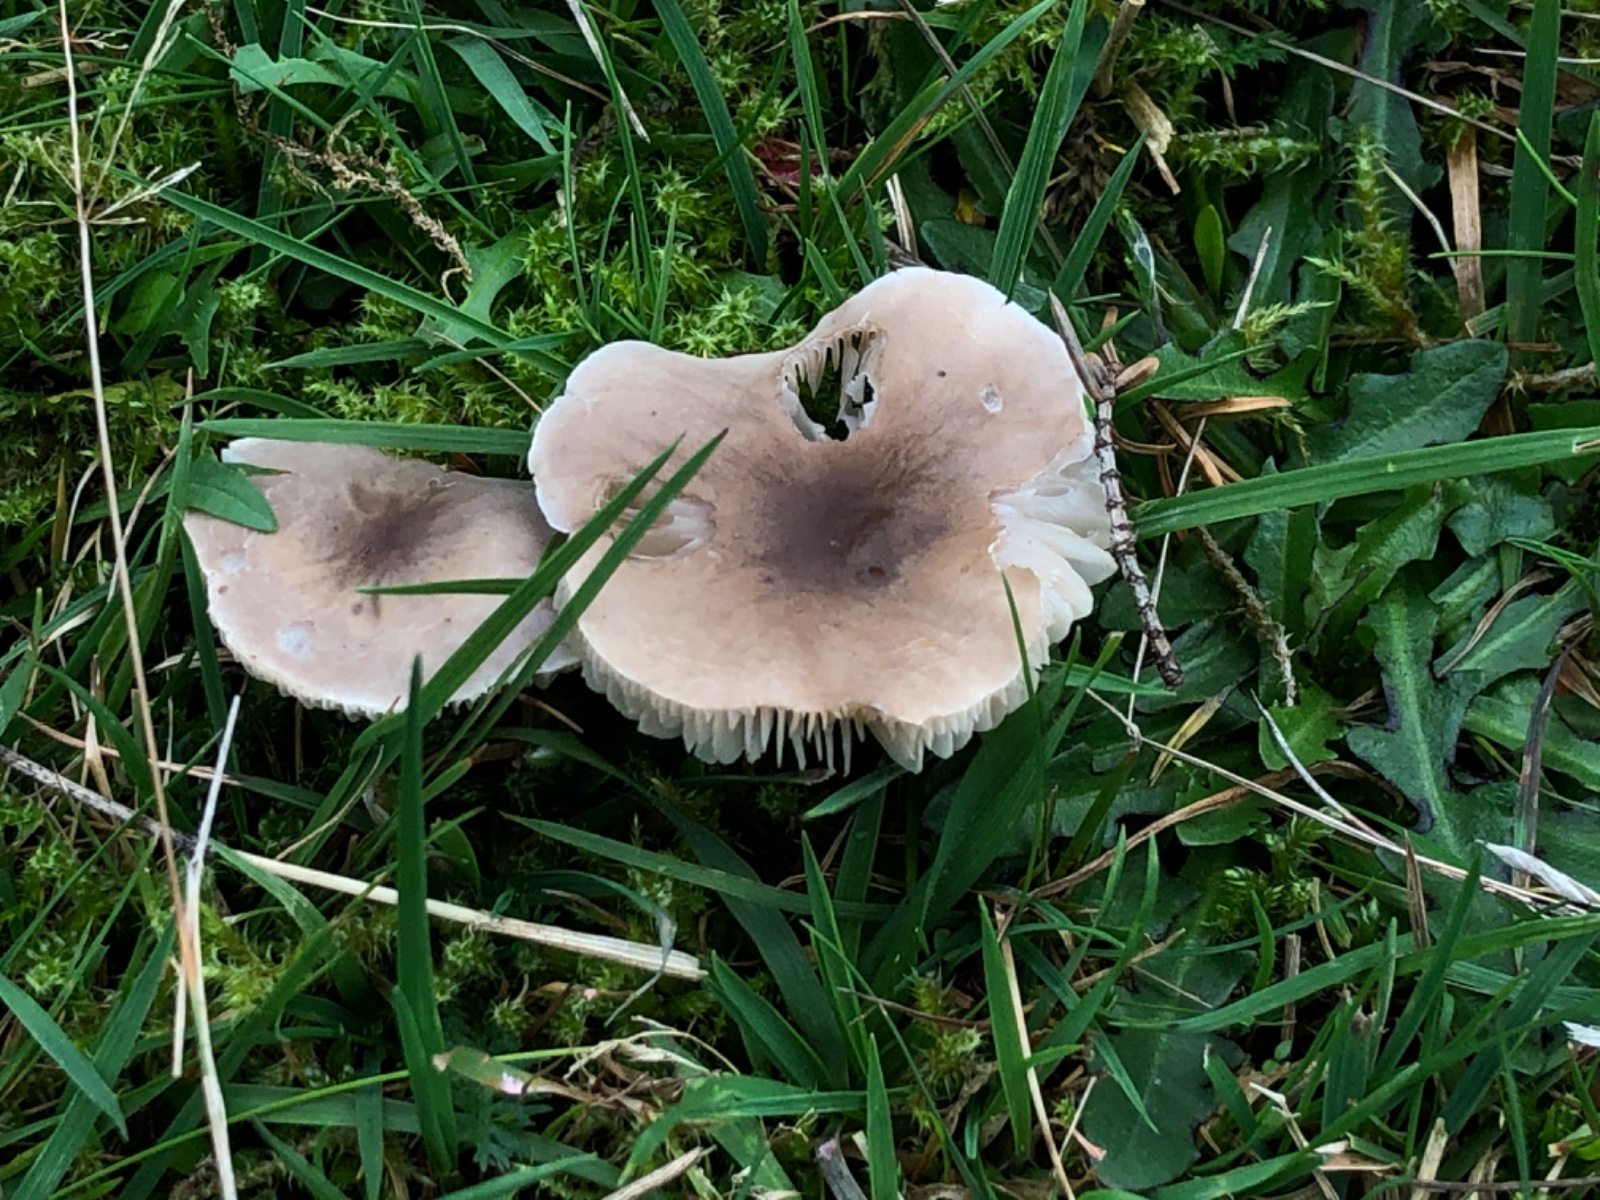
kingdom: Fungi
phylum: Basidiomycota
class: Agaricomycetes
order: Agaricales
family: Tricholomataceae
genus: Dermoloma
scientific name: Dermoloma cuneifolium
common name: eng-nonnehat
